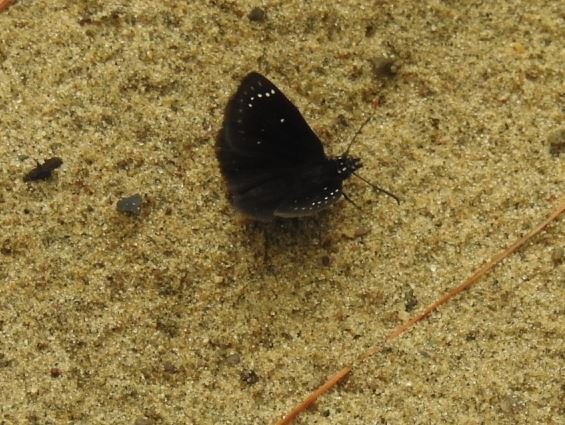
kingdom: Animalia
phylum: Arthropoda
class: Insecta
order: Lepidoptera
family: Hesperiidae
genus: Pholisora
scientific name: Pholisora catullus
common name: Common Sootywing
